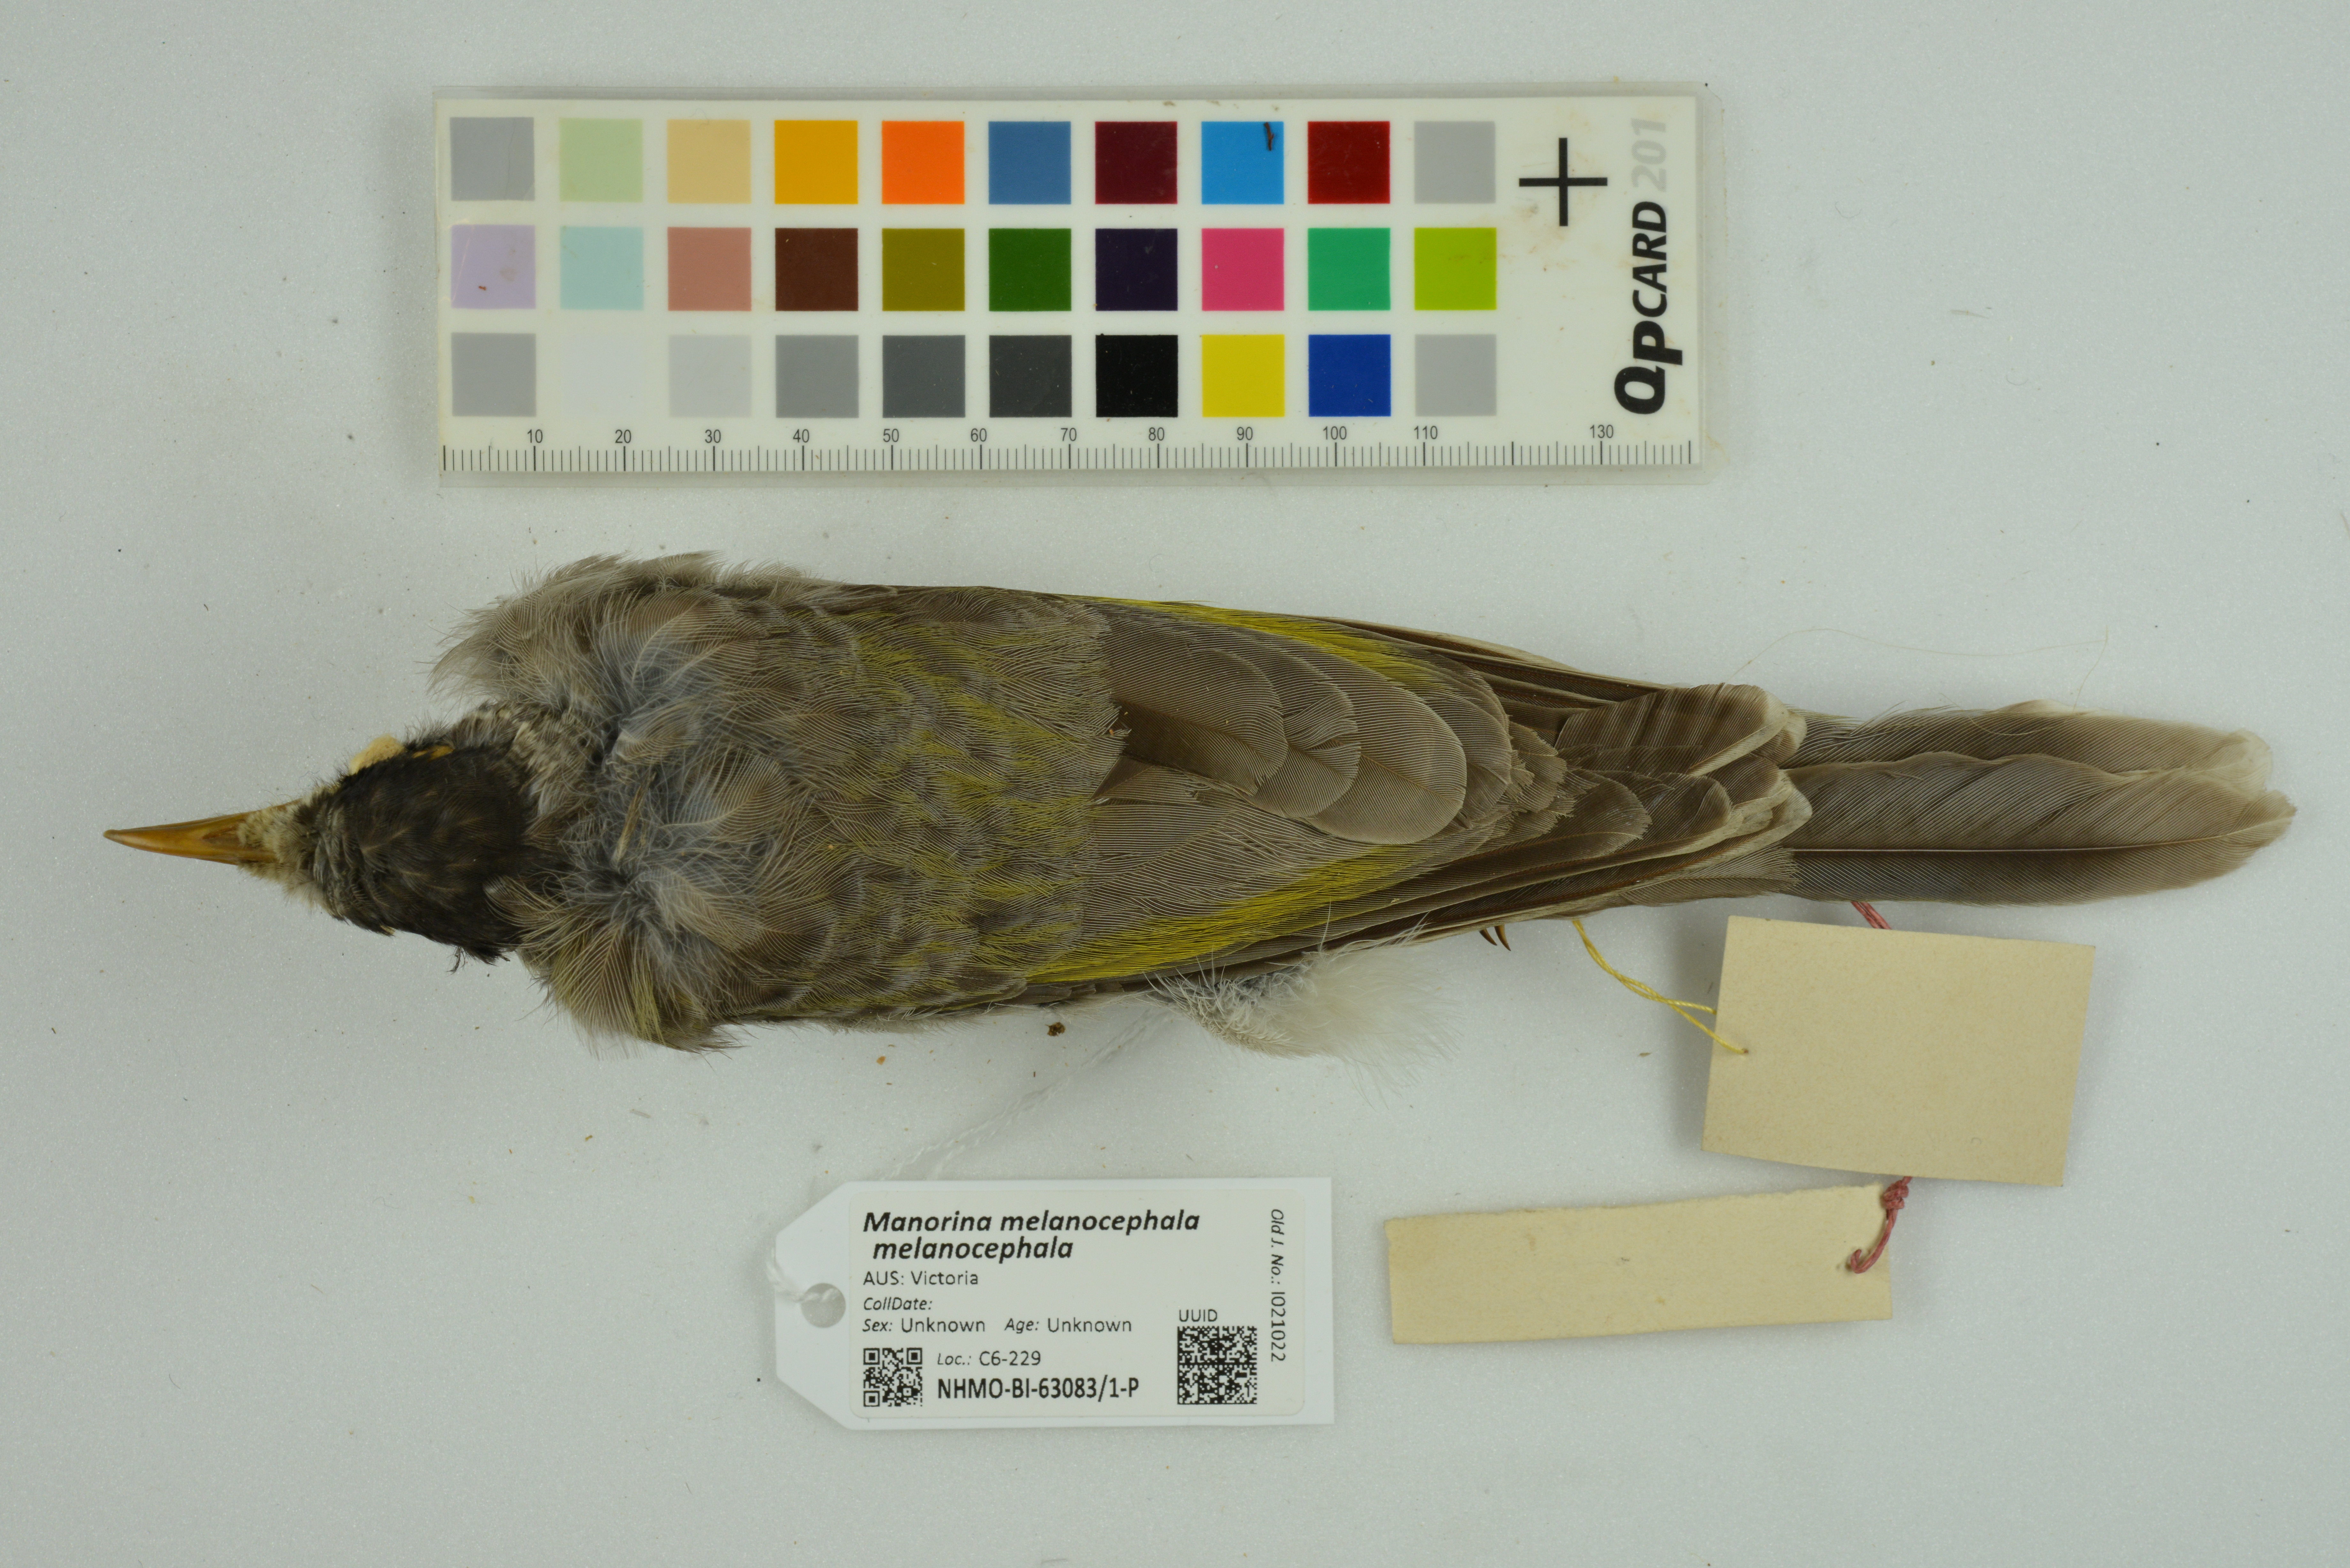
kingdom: Animalia
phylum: Chordata
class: Aves
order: Passeriformes
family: Meliphagidae
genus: Manorina
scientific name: Manorina melanocephala
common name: Noisy miner
